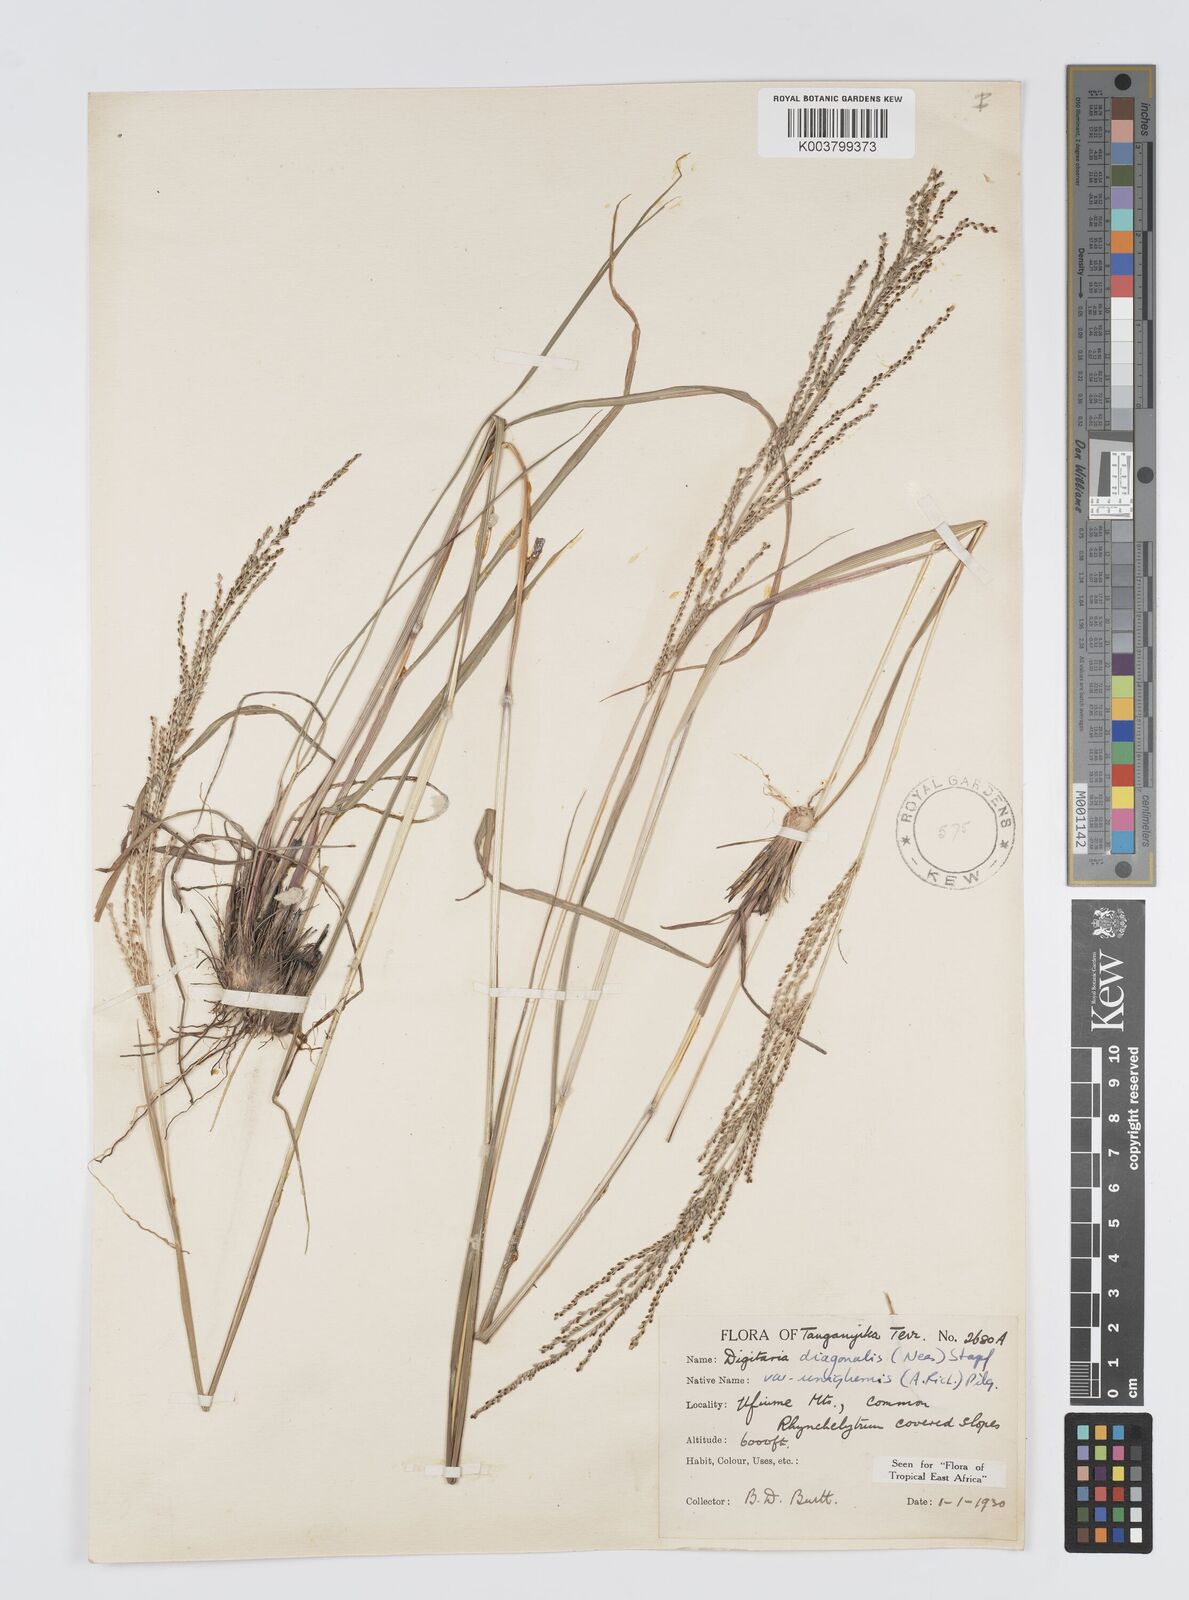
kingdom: Plantae
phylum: Tracheophyta
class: Liliopsida
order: Poales
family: Poaceae
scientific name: Poaceae
